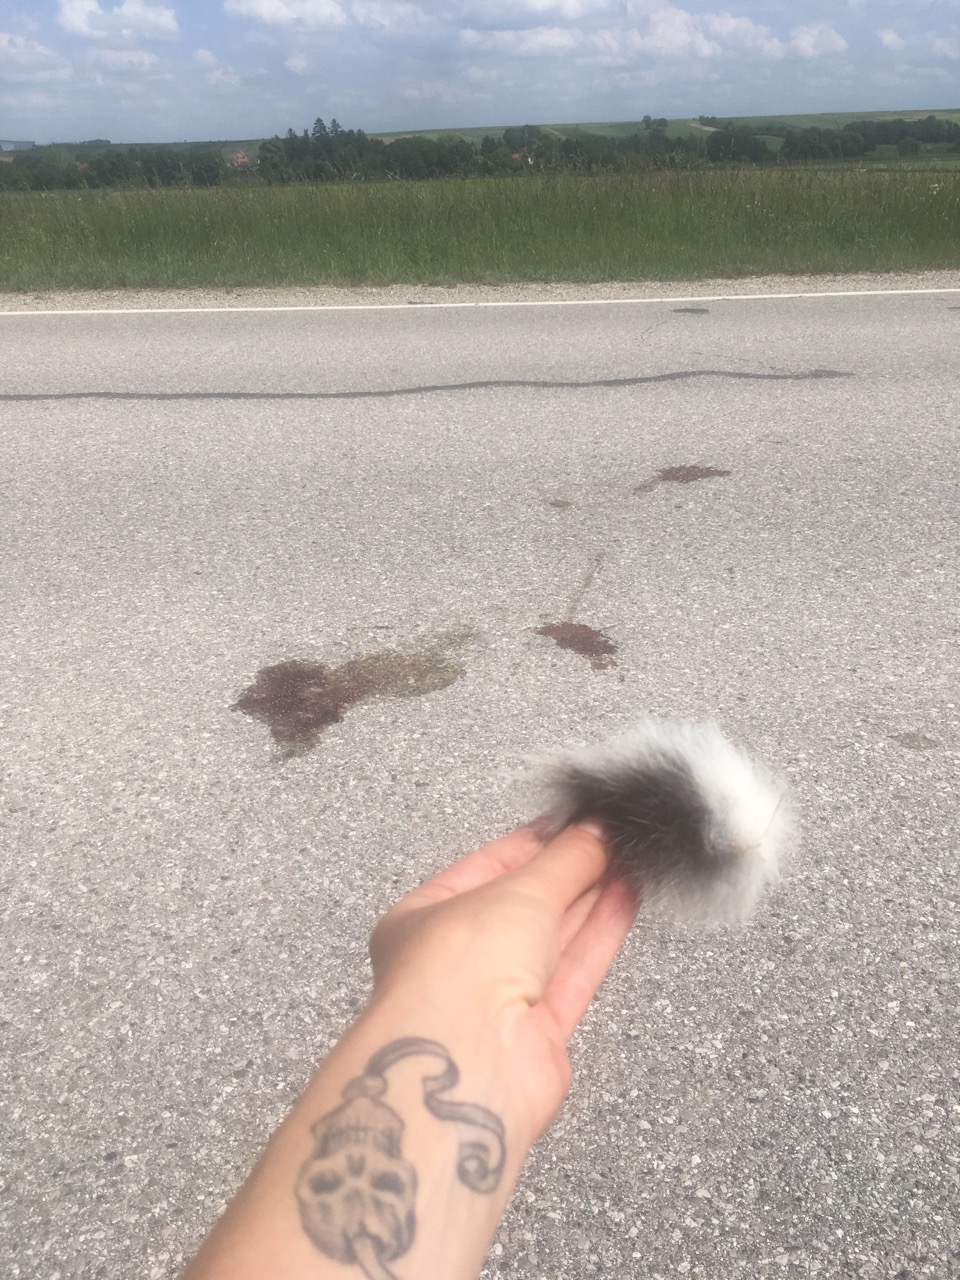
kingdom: Animalia
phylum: Chordata
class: Mammalia
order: Lagomorpha
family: Leporidae
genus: Lepus
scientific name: Lepus europaeus
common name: European hare
